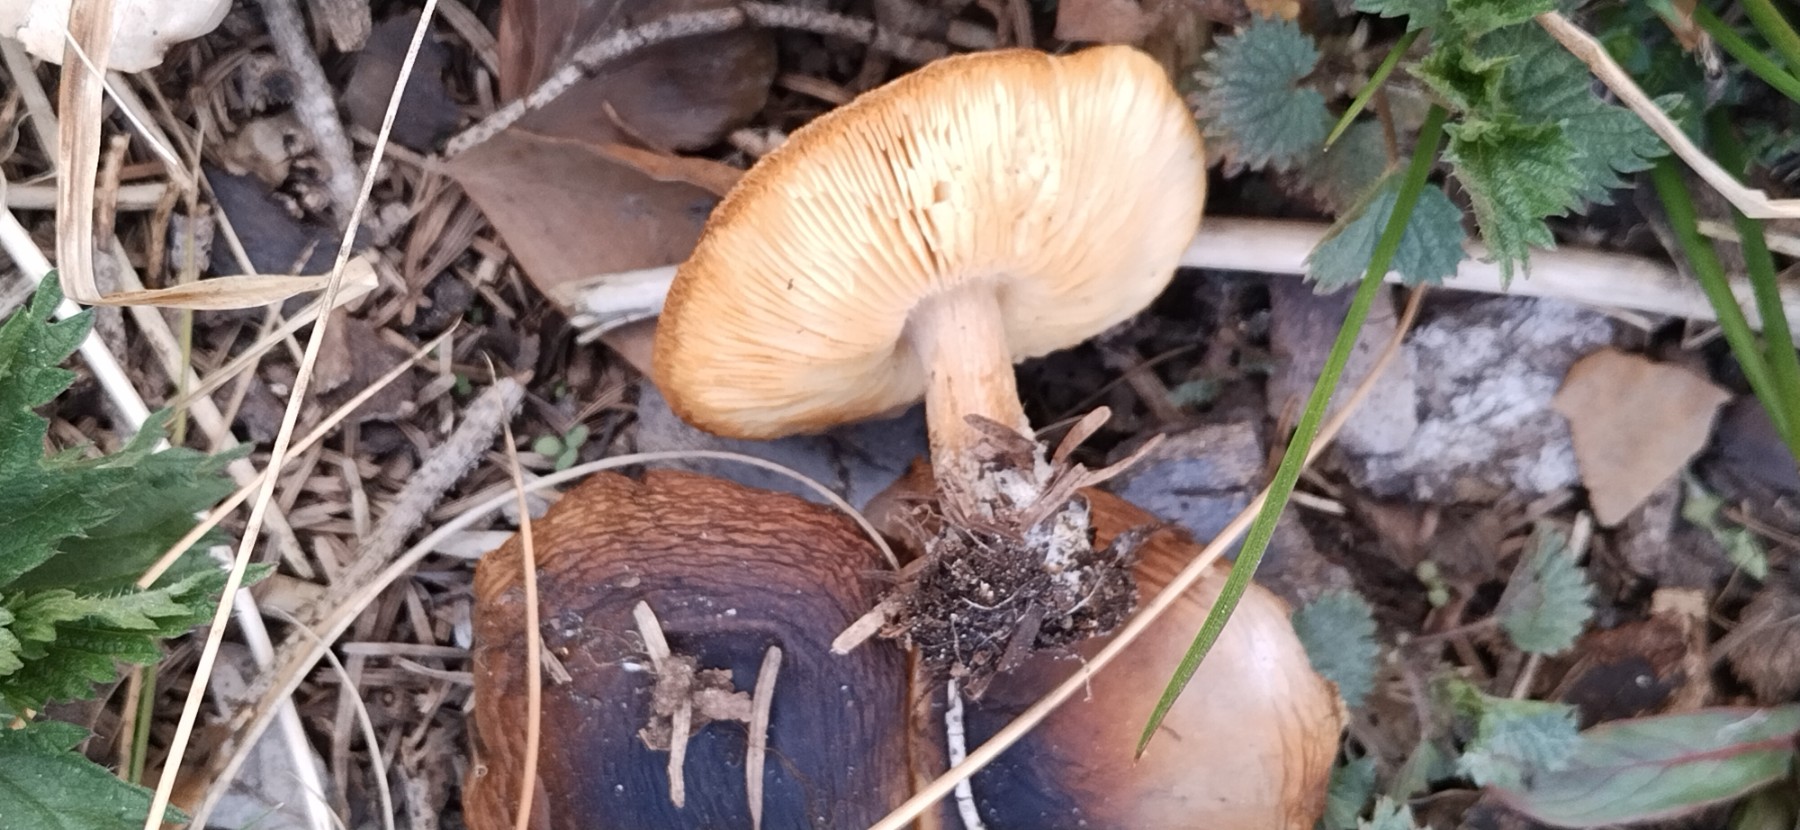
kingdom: Fungi
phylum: Basidiomycota
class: Agaricomycetes
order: Agaricales
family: Tricholomataceae
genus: Melanoleuca
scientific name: Melanoleuca cognata
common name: gyldengrå munkehat
